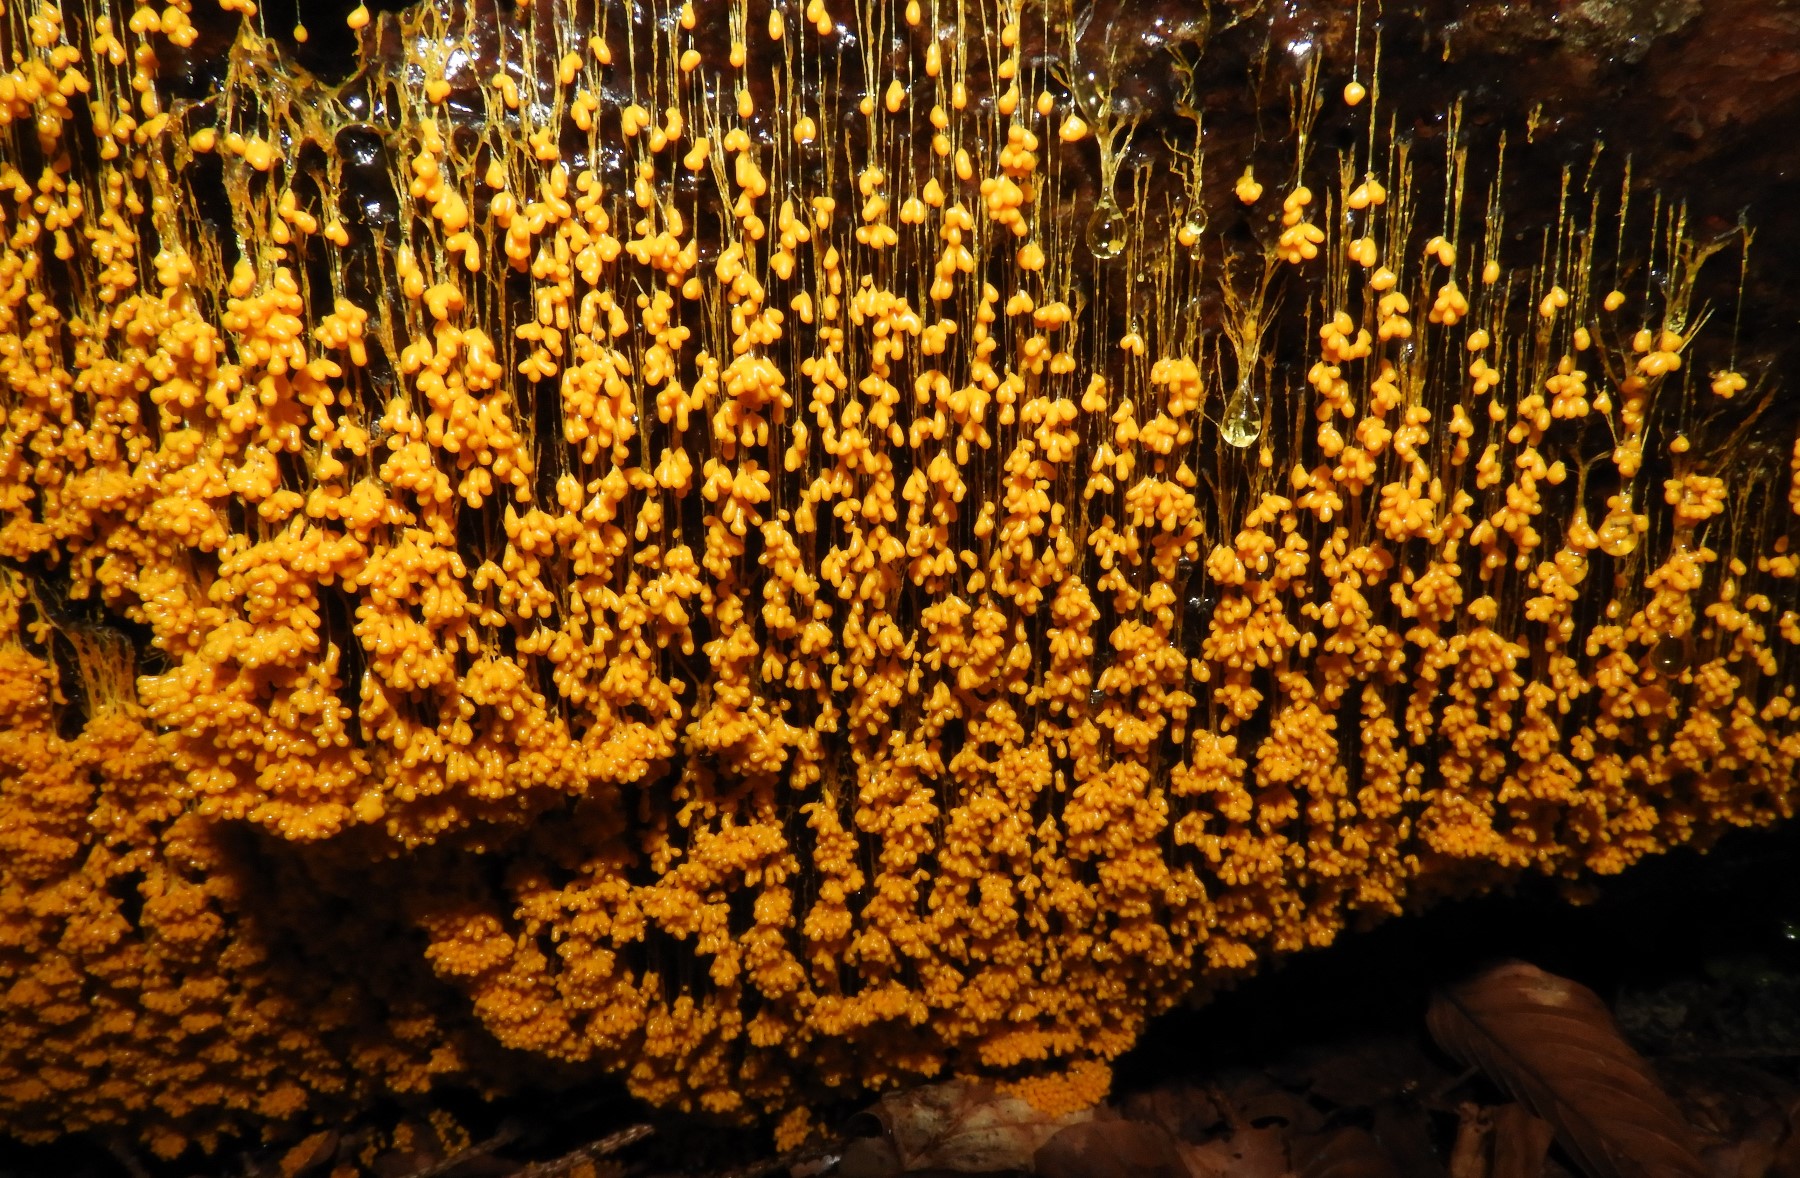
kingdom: Protozoa
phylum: Mycetozoa
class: Myxomycetes
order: Physarales
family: Physaraceae
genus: Badhamia
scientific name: Badhamia utricularis
